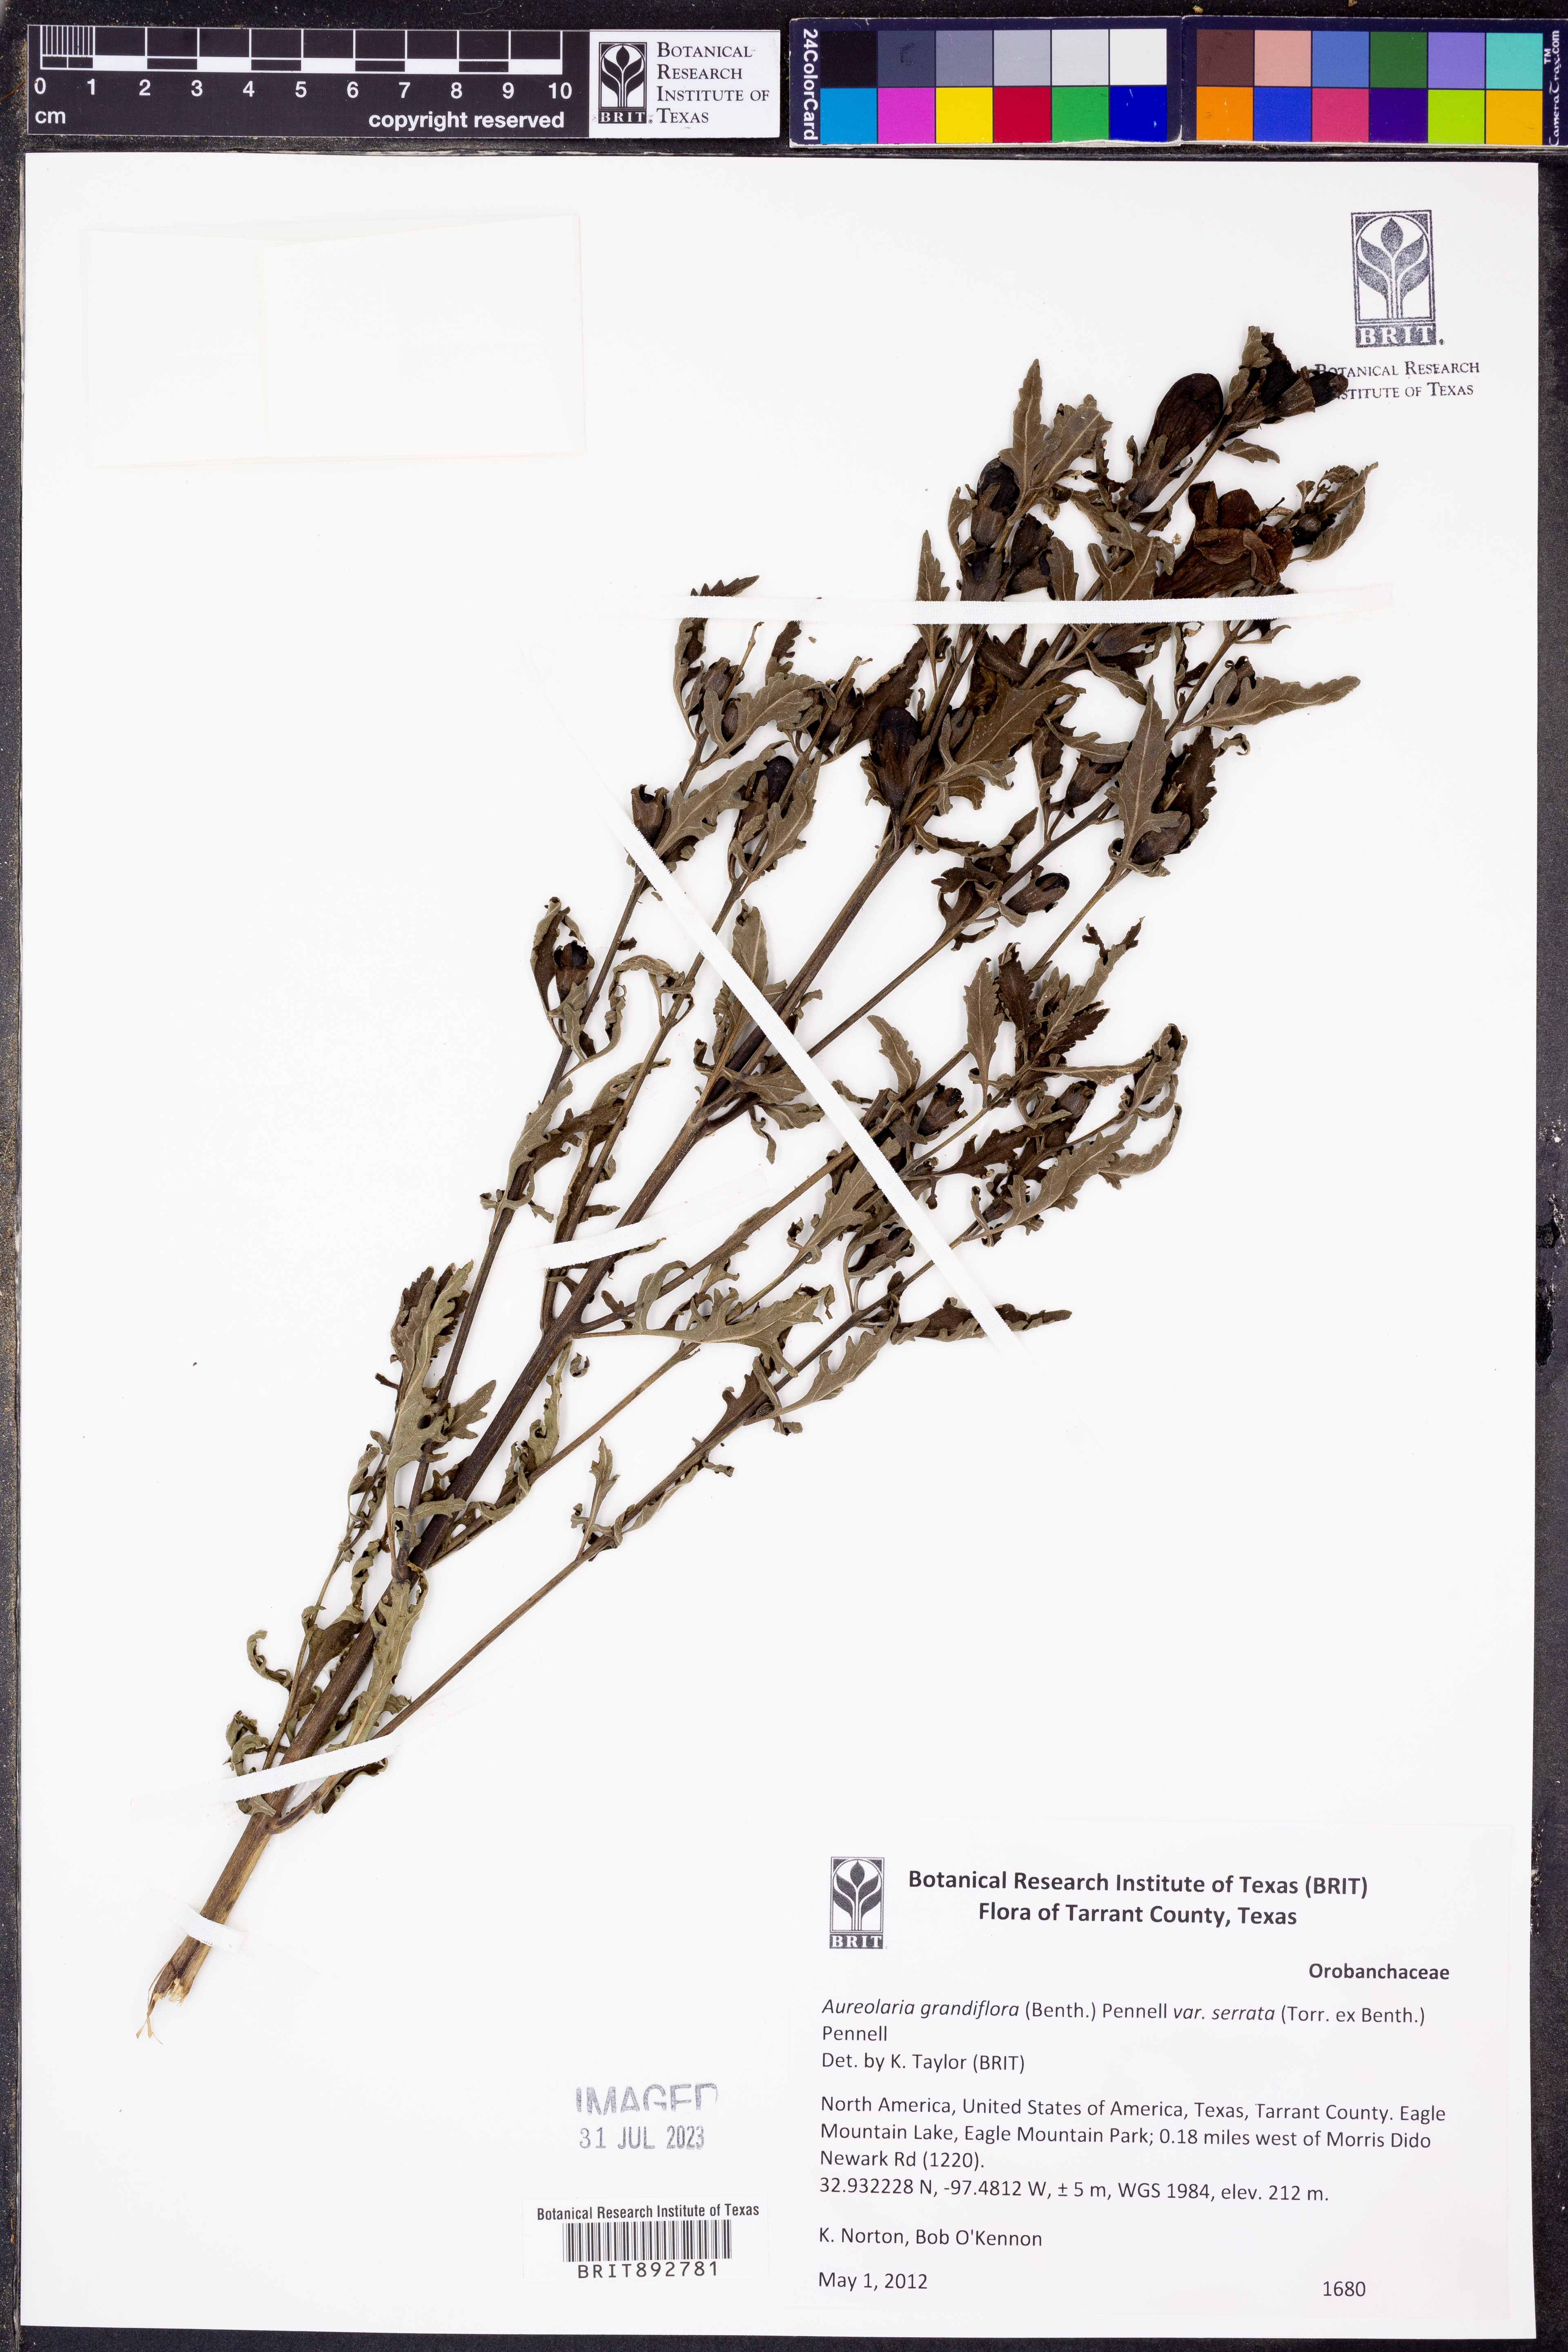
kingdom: Plantae
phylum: Tracheophyta
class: Magnoliopsida
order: Lamiales
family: Orobanchaceae
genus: Aureolaria
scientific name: Aureolaria grandiflora
